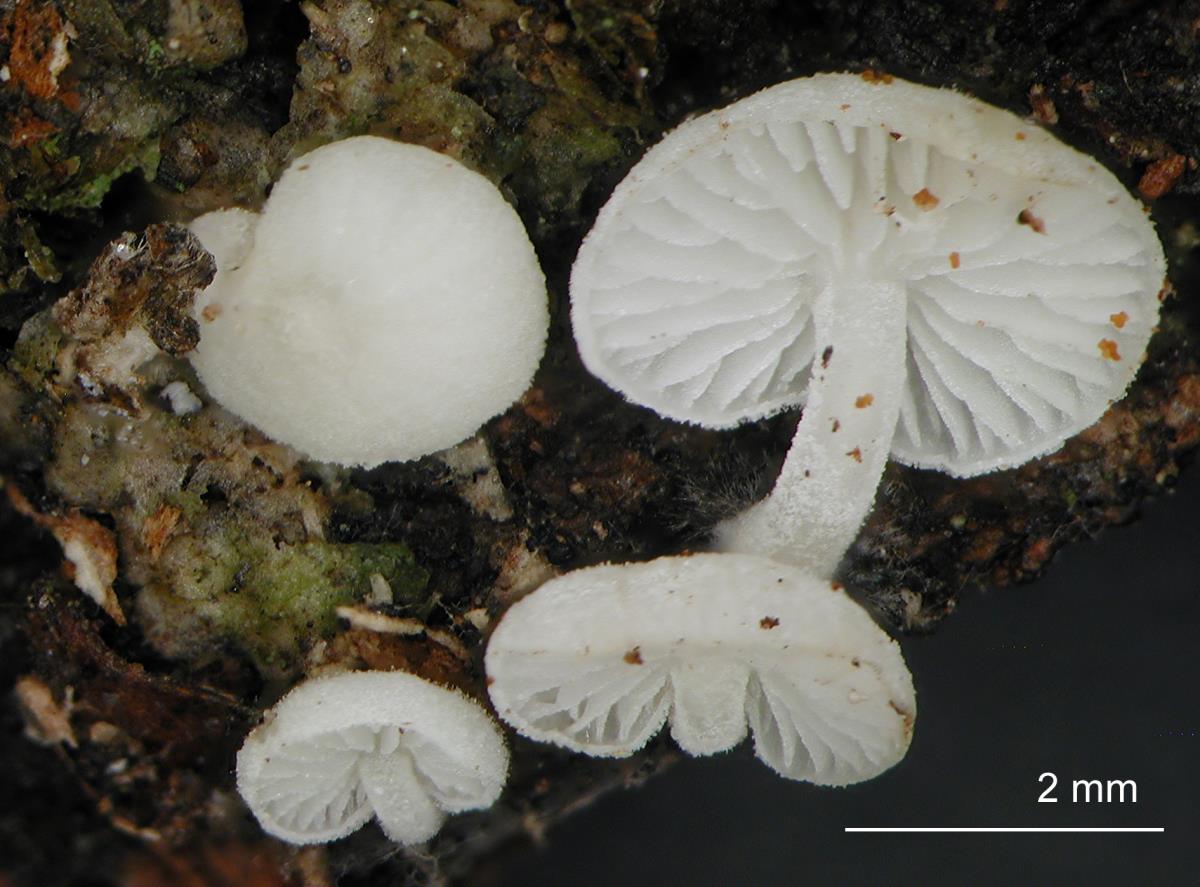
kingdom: Fungi
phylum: Basidiomycota
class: Agaricomycetes
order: Agaricales
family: Mycenaceae
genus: Hemimycena
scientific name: Hemimycena tortuosa
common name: Dewdrop bonnet
